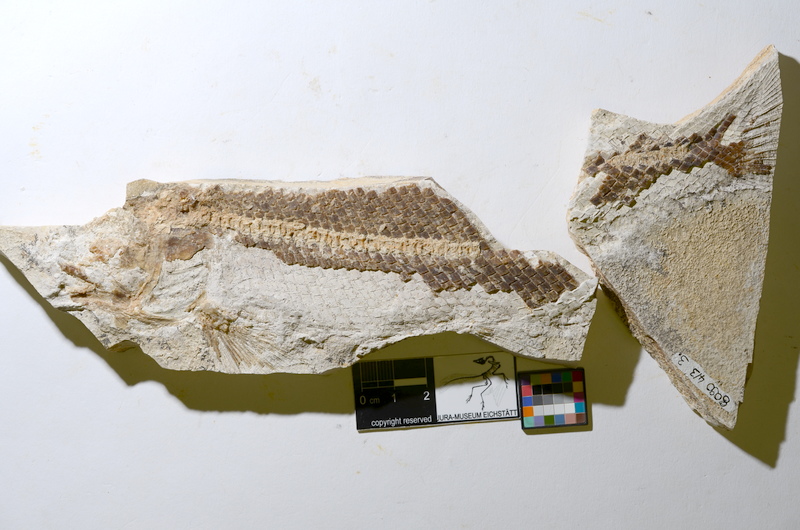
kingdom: Animalia
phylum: Chordata
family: Ophiopsiellidae
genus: Ophiopsiella
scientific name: Ophiopsiella
